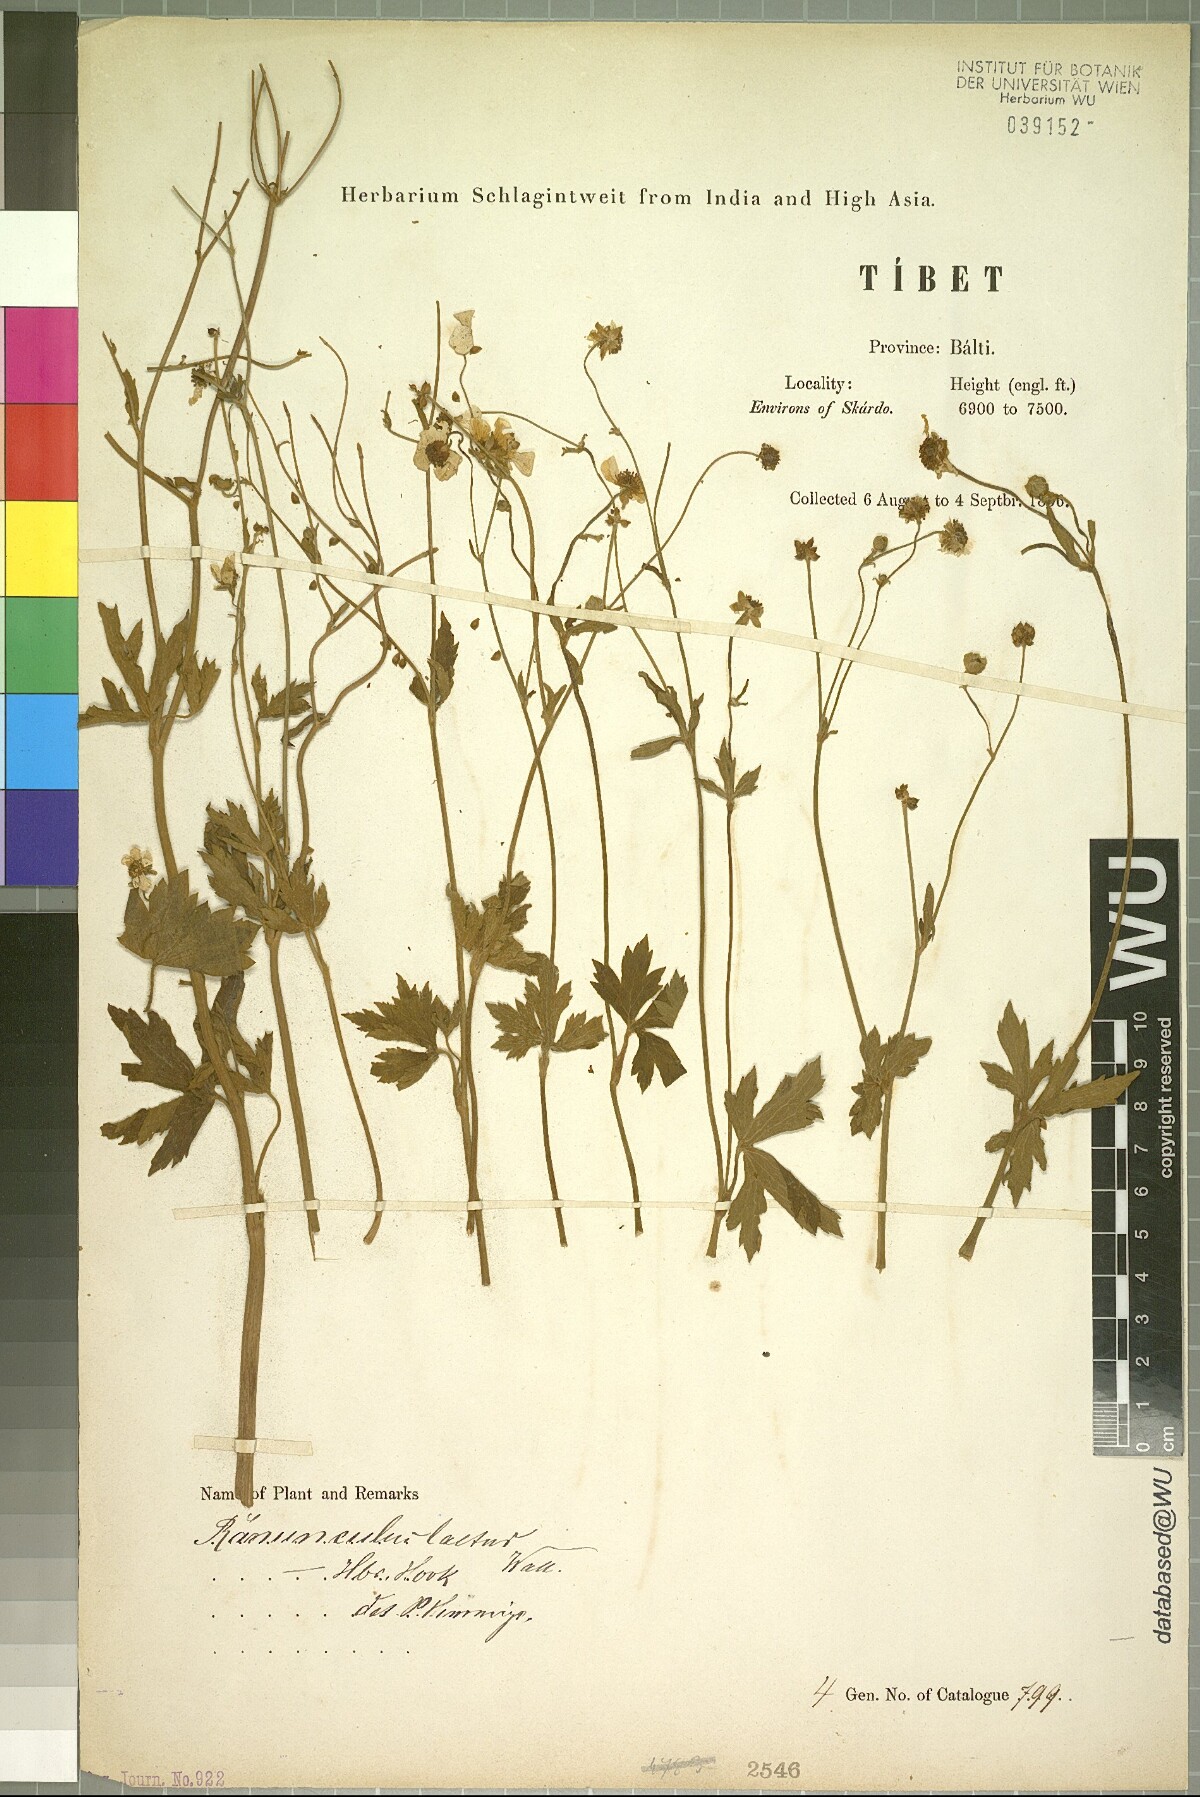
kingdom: Plantae
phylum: Tracheophyta
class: Magnoliopsida
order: Ranunculales
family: Ranunculaceae
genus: Ranunculus
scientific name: Ranunculus distans
